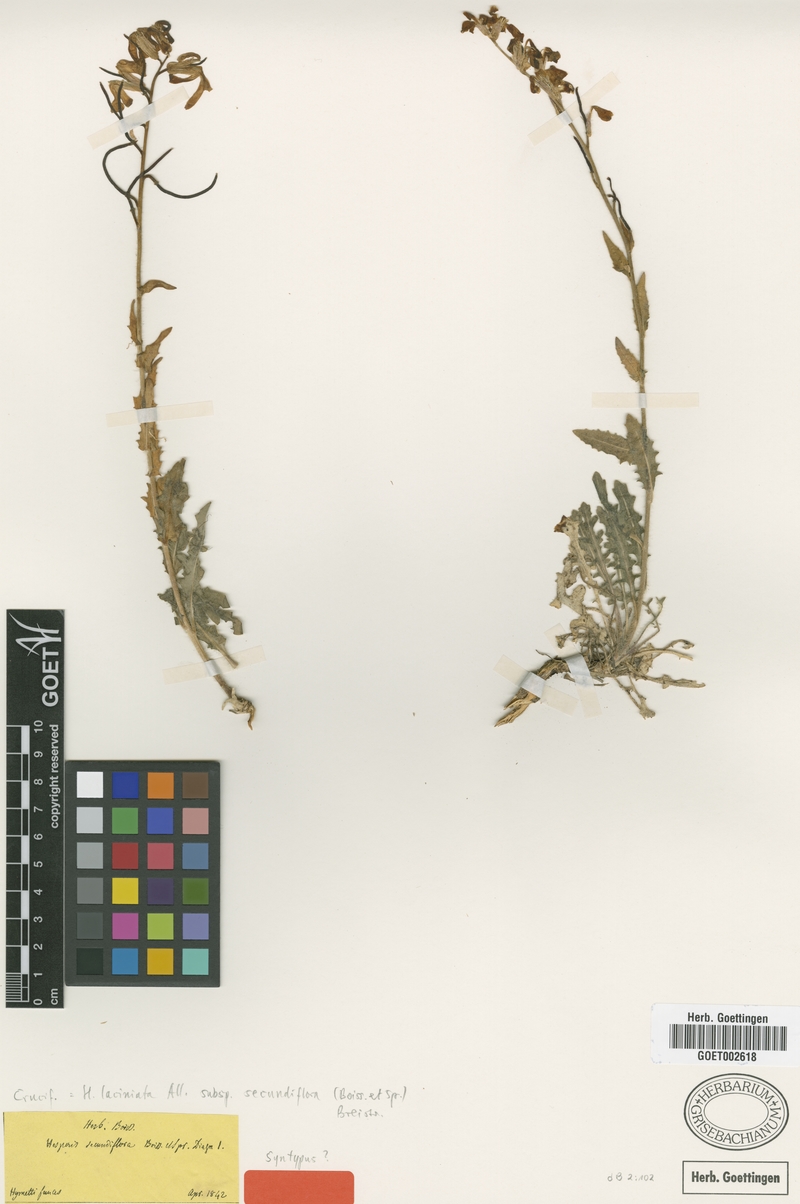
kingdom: Plantae
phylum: Tracheophyta
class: Magnoliopsida
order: Brassicales
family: Brassicaceae
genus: Hesperis
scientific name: Hesperis laciniata
